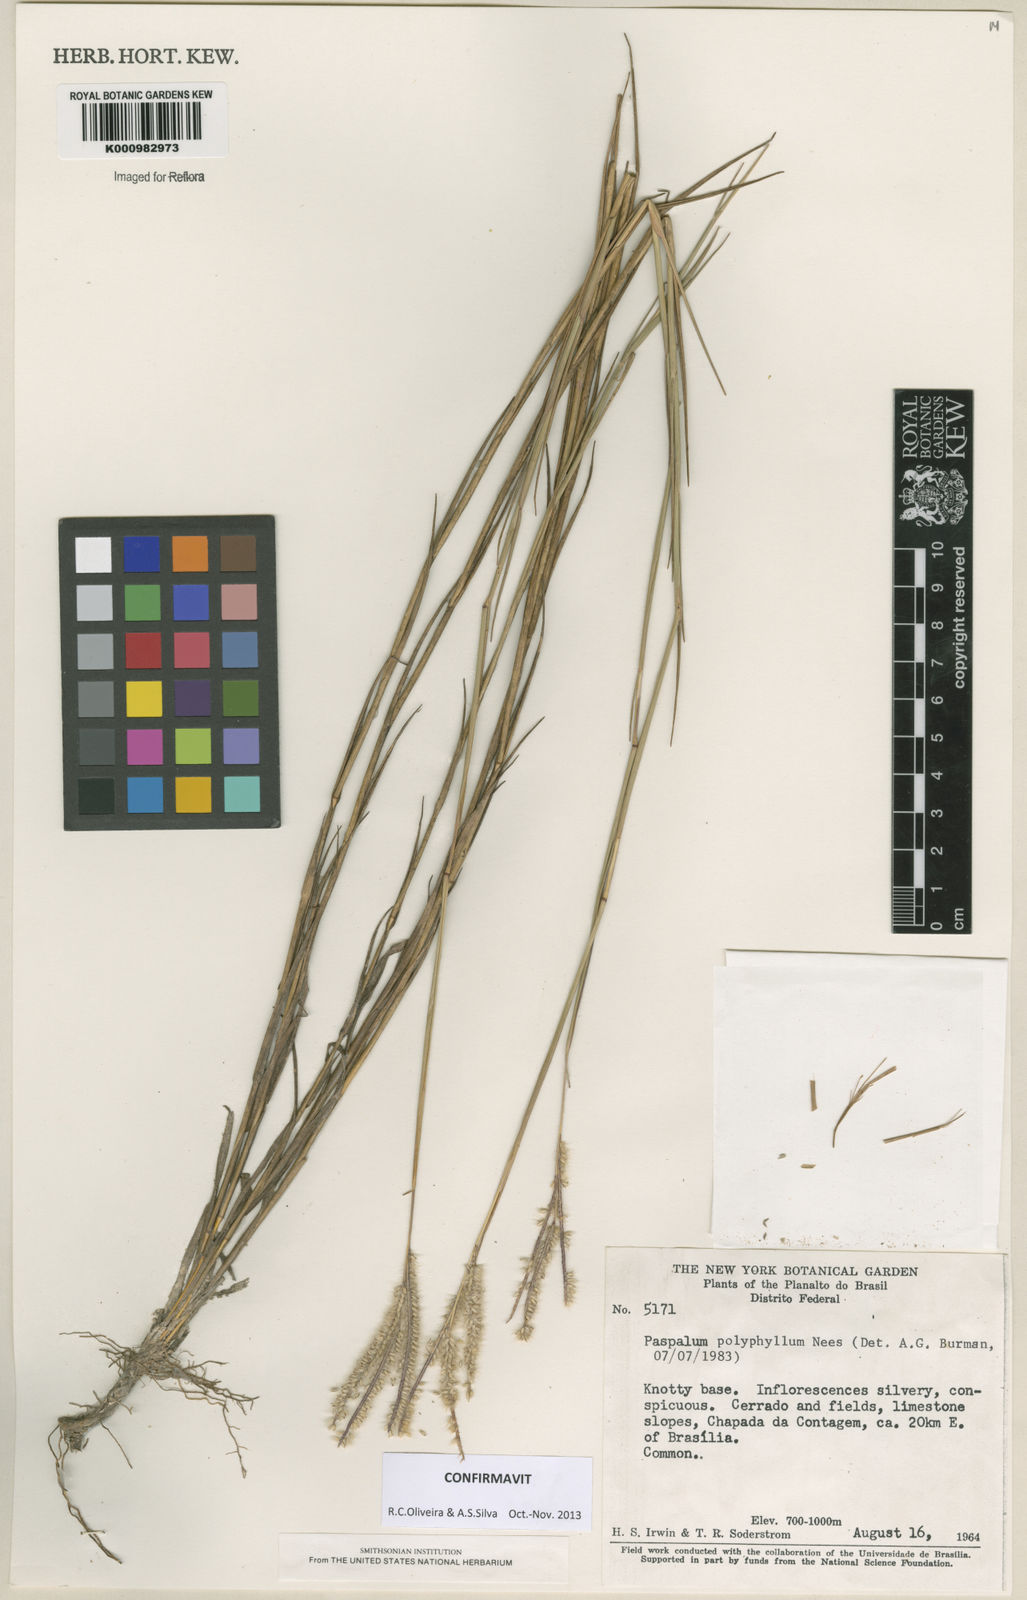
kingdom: Plantae
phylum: Tracheophyta
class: Liliopsida
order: Poales
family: Poaceae
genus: Paspalum
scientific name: Paspalum
